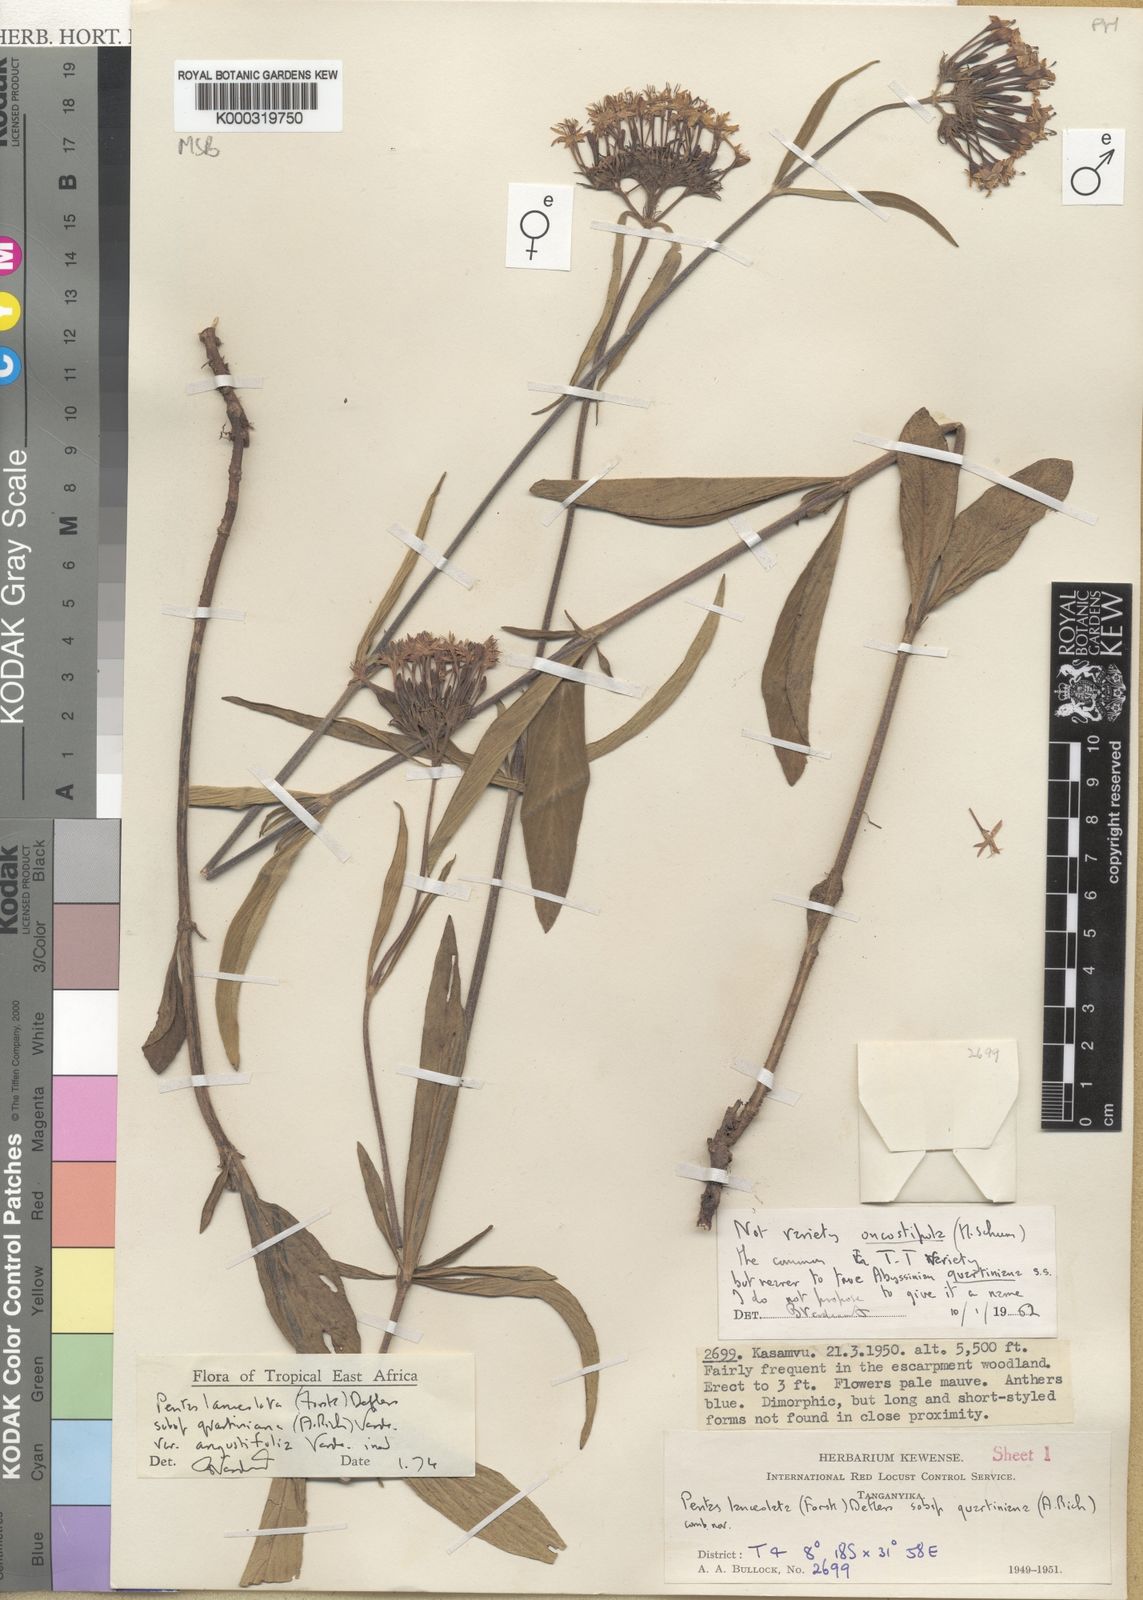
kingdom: Plantae
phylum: Tracheophyta
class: Magnoliopsida
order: Gentianales
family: Rubiaceae
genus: Pentas
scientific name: Pentas lanceolata
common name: Egyptian starcluster
